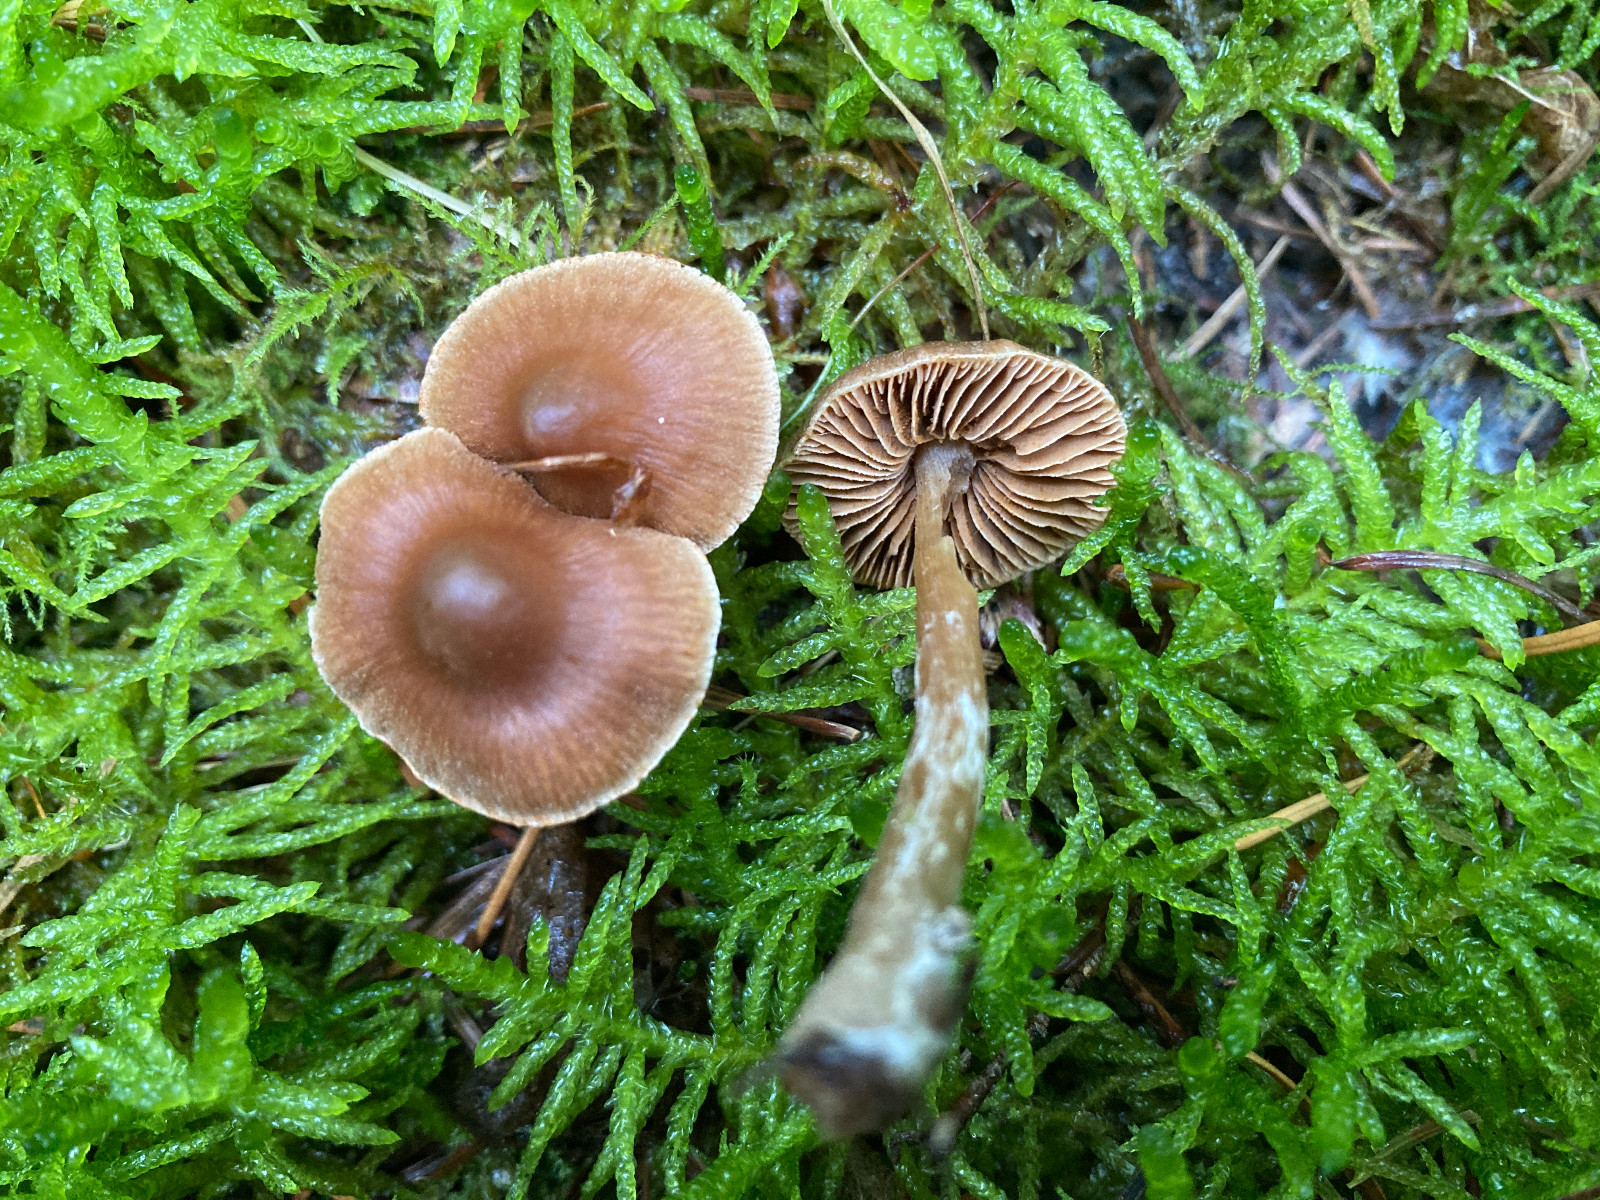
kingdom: Fungi
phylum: Basidiomycota
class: Agaricomycetes
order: Agaricales
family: Cortinariaceae
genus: Cortinarius
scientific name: Cortinarius
